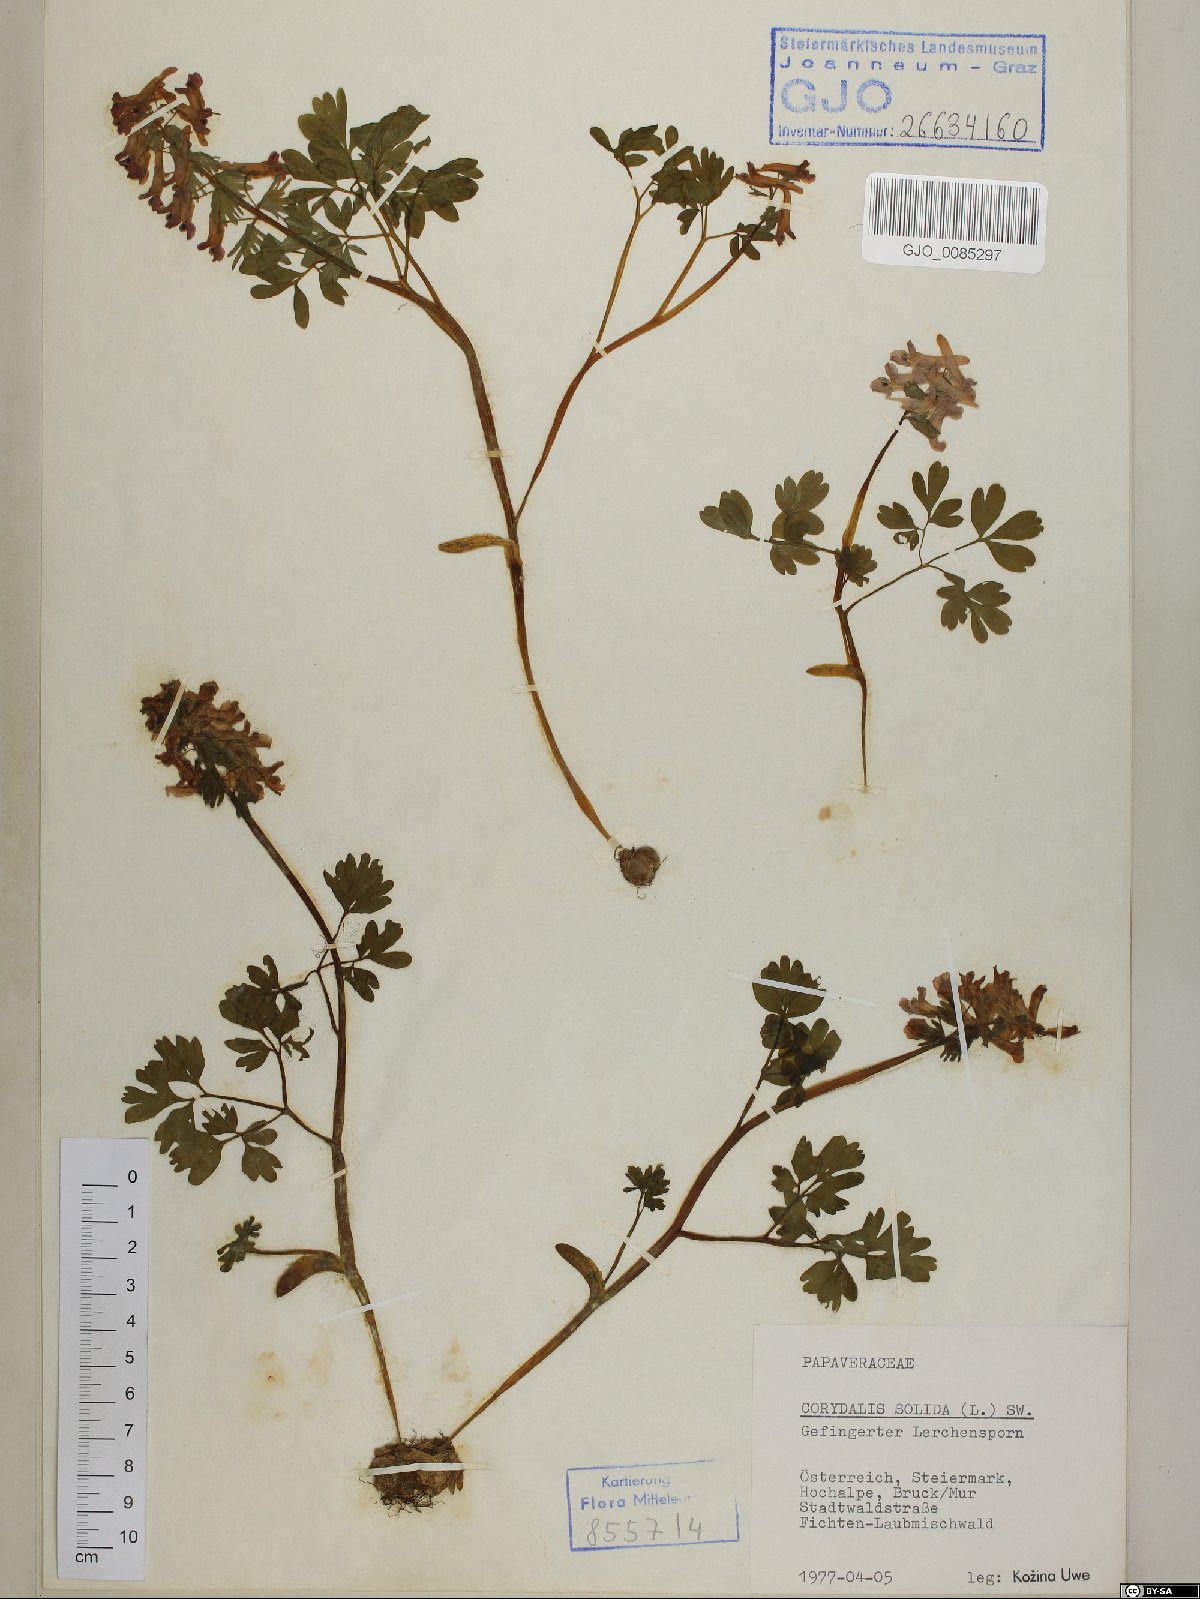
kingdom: Plantae
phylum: Tracheophyta
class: Magnoliopsida
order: Ranunculales
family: Papaveraceae
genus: Corydalis
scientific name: Corydalis solida
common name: Bird-in-a-bush
